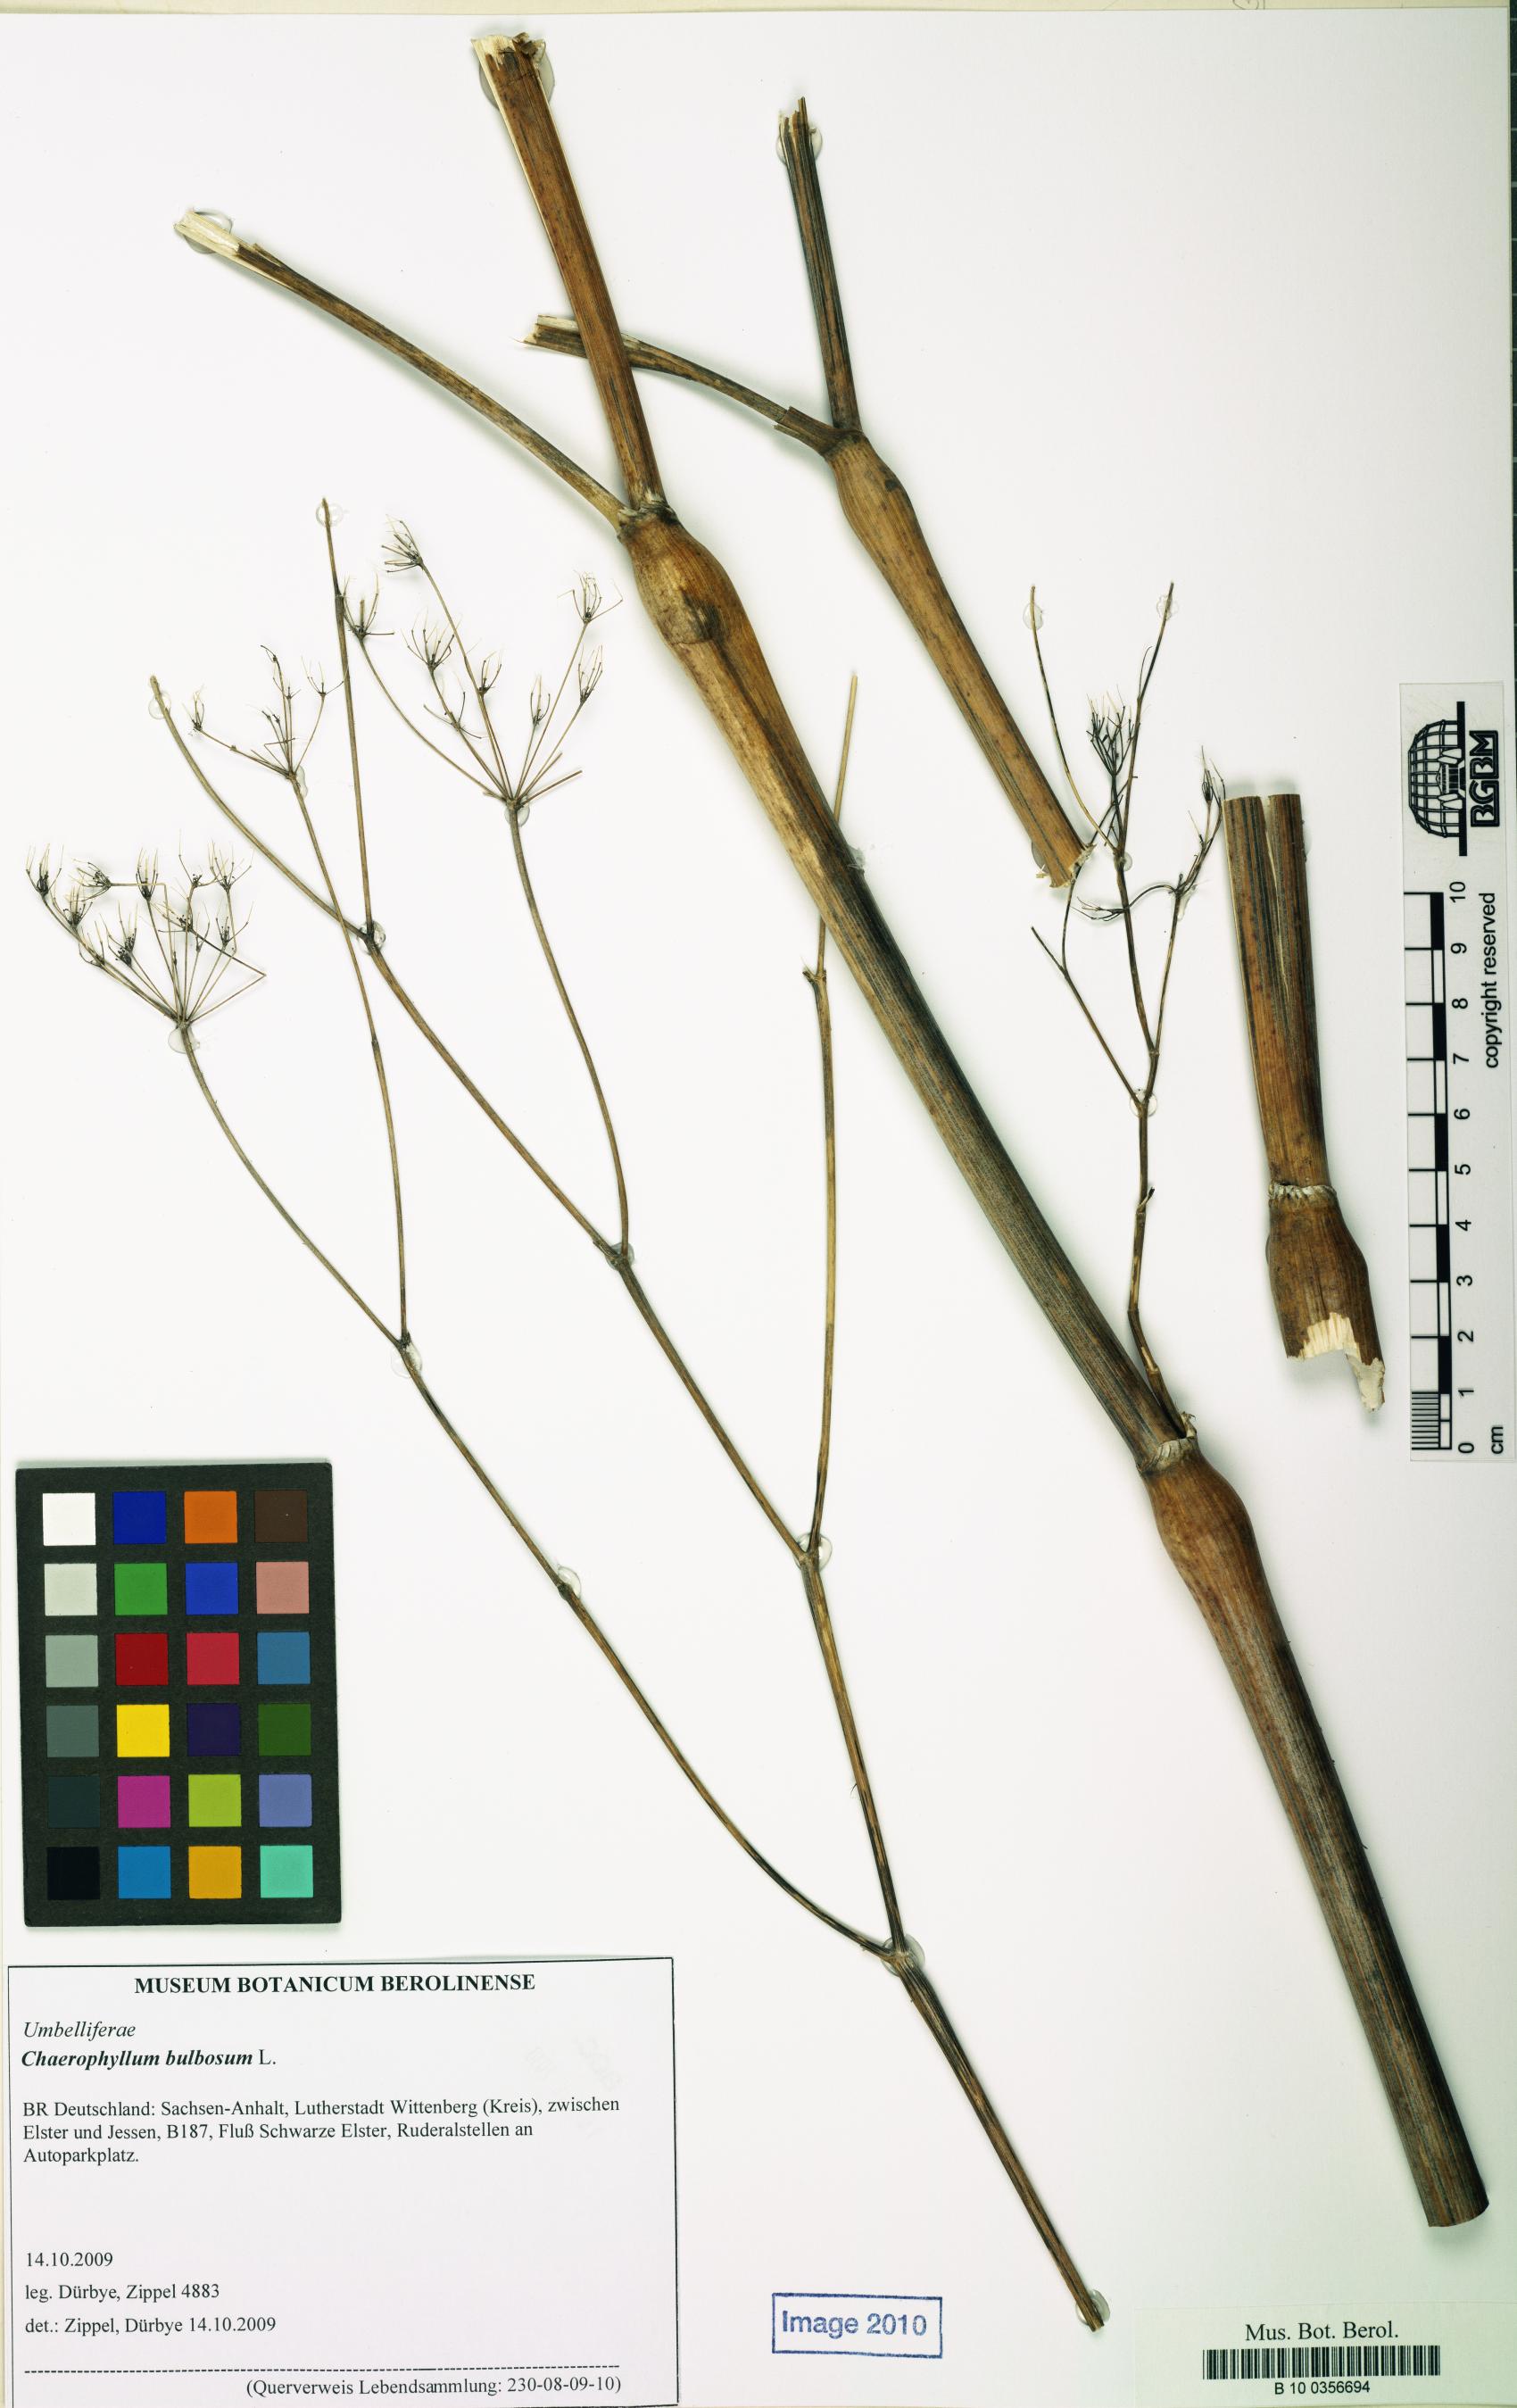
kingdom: Plantae
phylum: Tracheophyta
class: Magnoliopsida
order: Apiales
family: Apiaceae
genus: Chaerophyllum
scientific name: Chaerophyllum bulbosum
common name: Bulbous chervil
